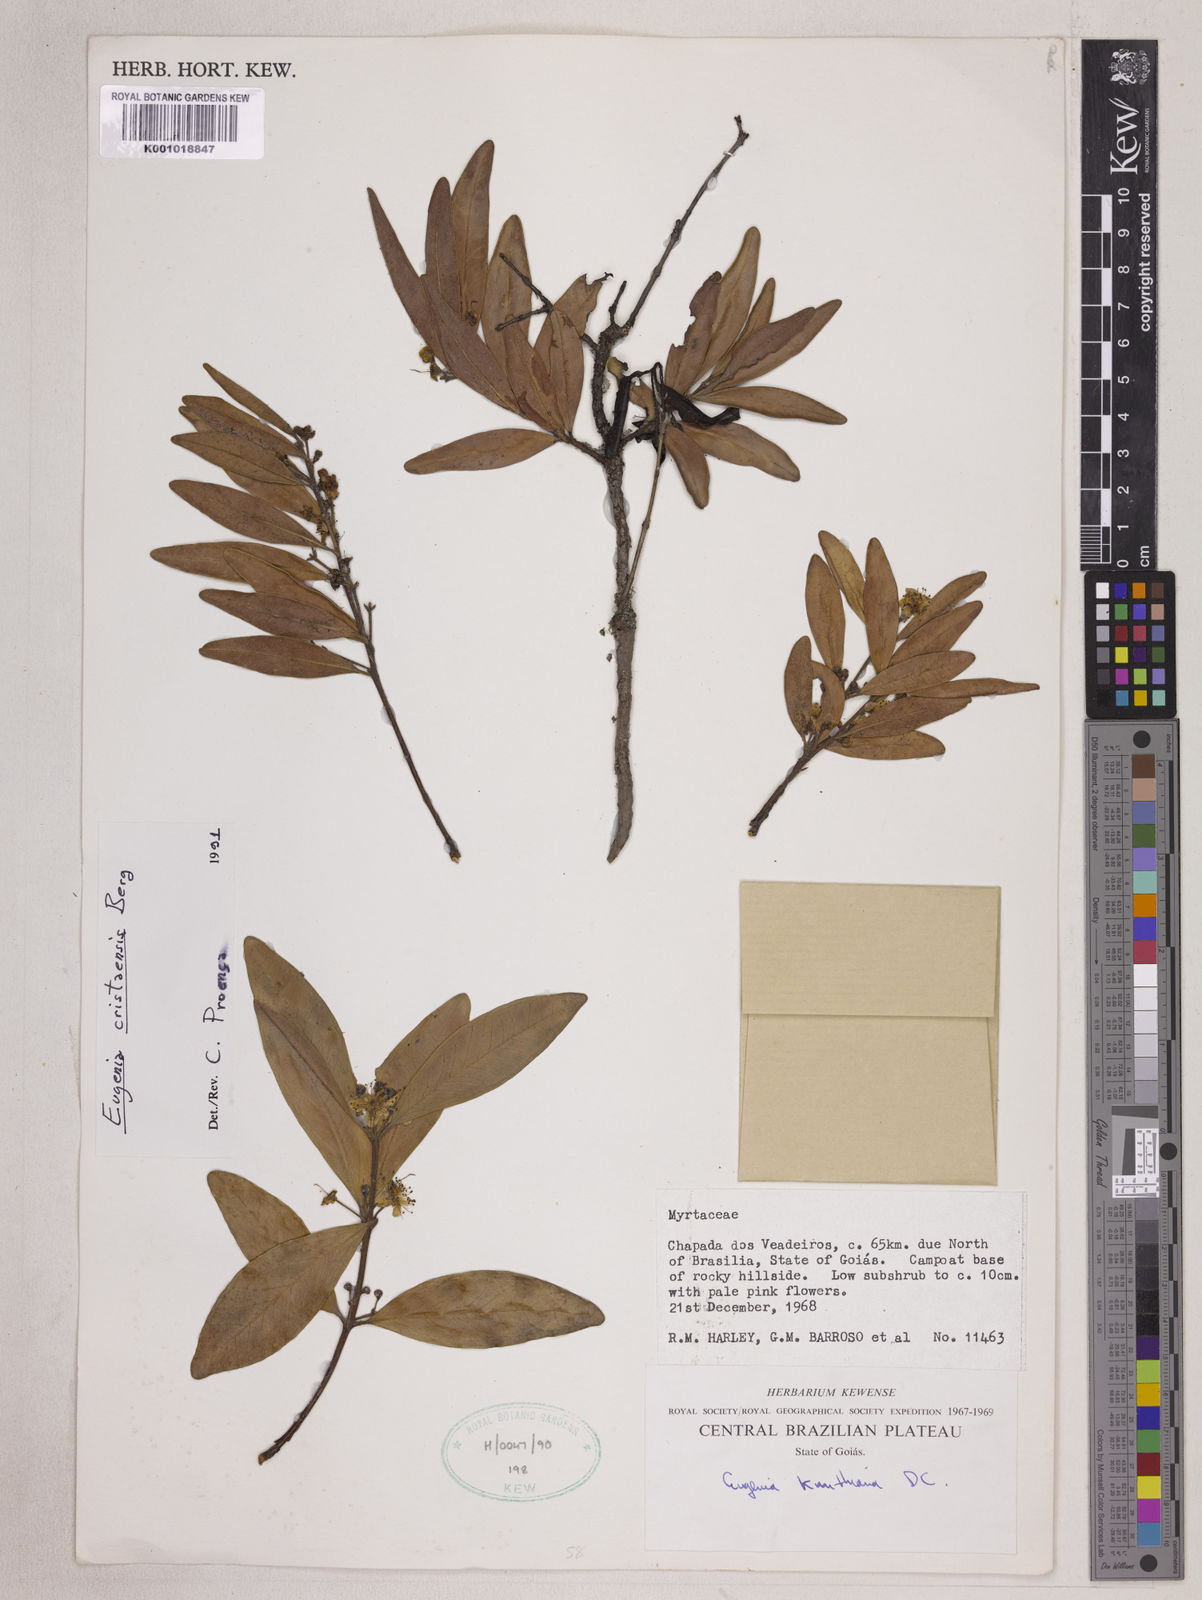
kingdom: Plantae
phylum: Tracheophyta
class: Magnoliopsida
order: Myrtales
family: Myrtaceae
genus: Eugenia
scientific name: Eugenia cristaensis
